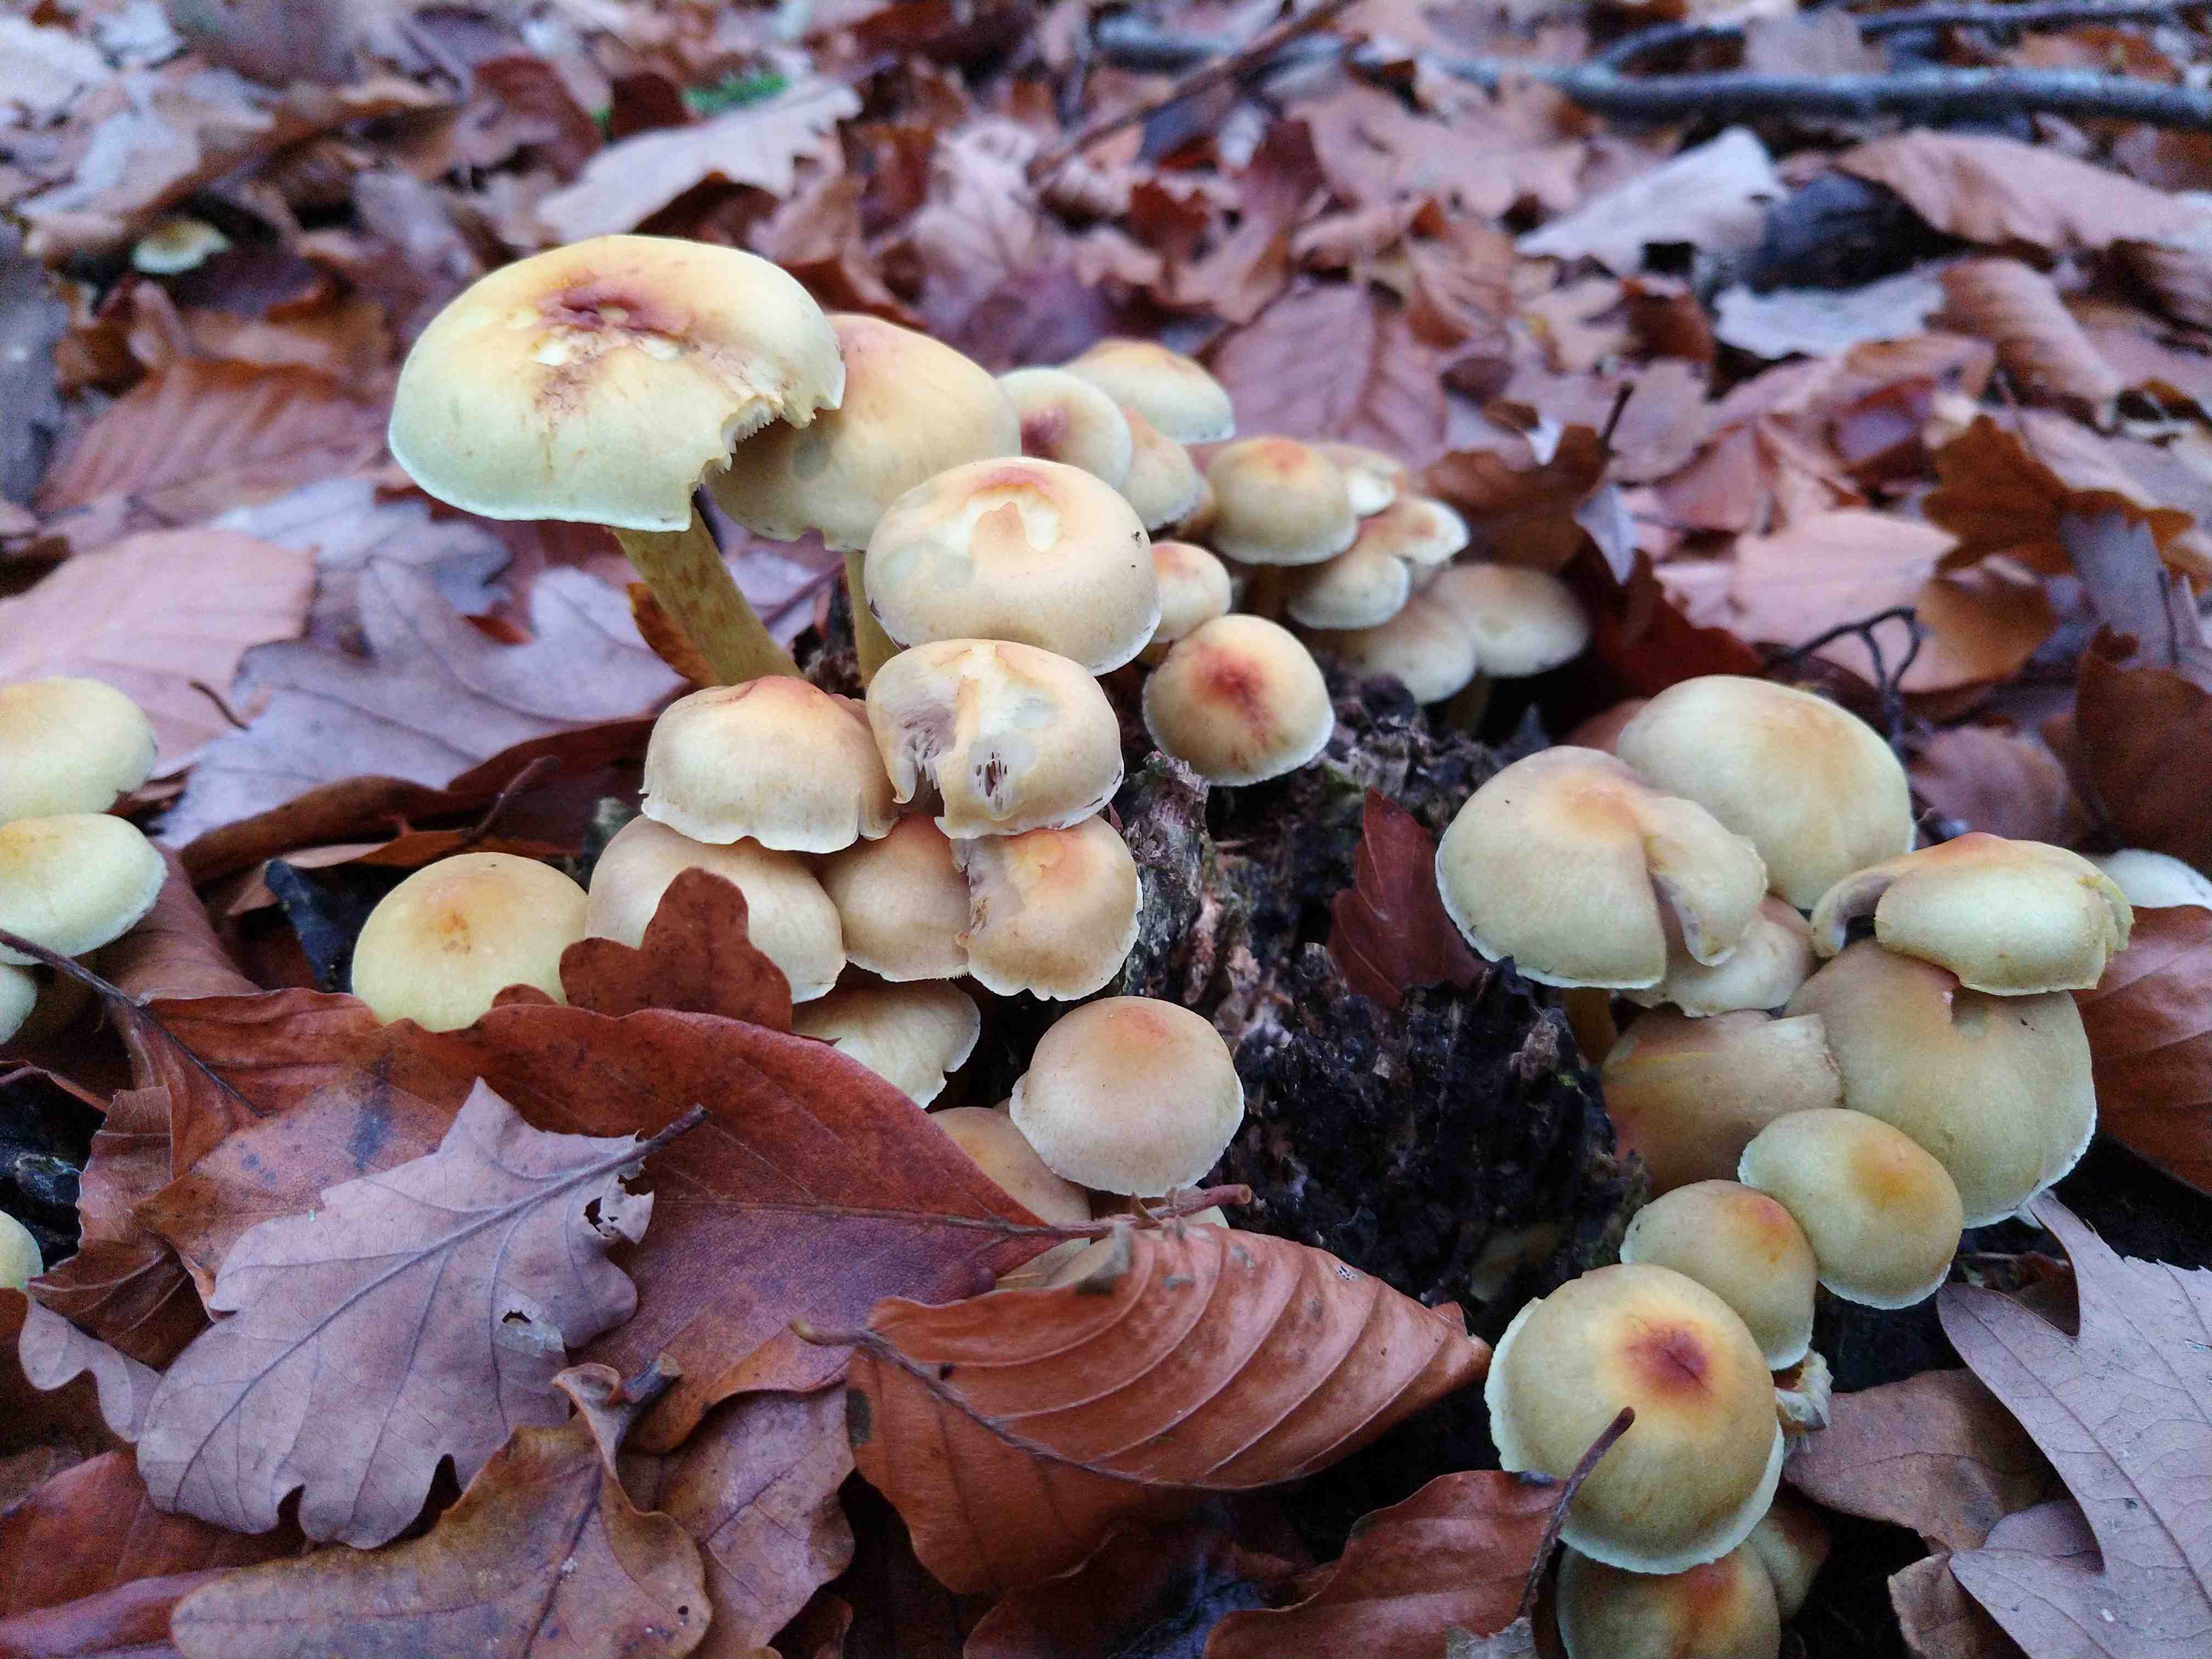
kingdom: Fungi
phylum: Basidiomycota
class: Agaricomycetes
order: Agaricales
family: Strophariaceae
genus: Hypholoma
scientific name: Hypholoma fasciculare
